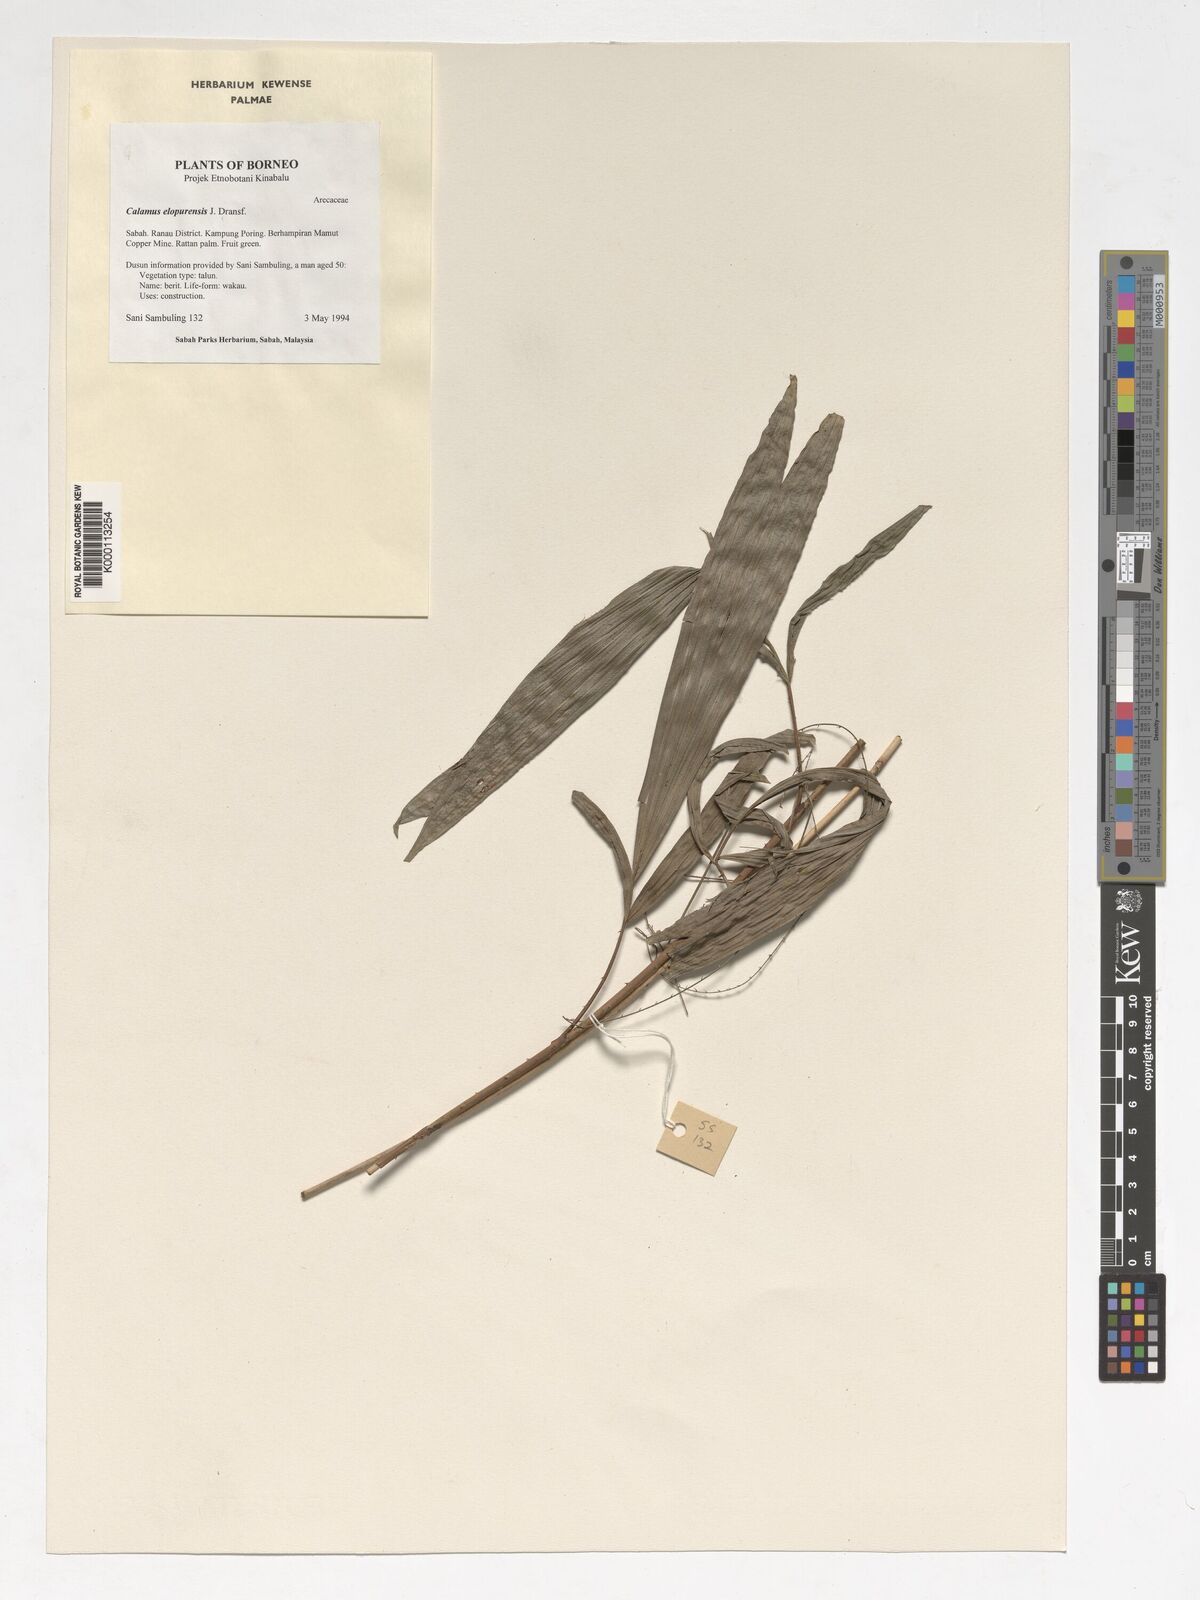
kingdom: Plantae
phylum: Tracheophyta
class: Liliopsida
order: Arecales
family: Arecaceae
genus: Calamus
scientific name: Calamus javensis
